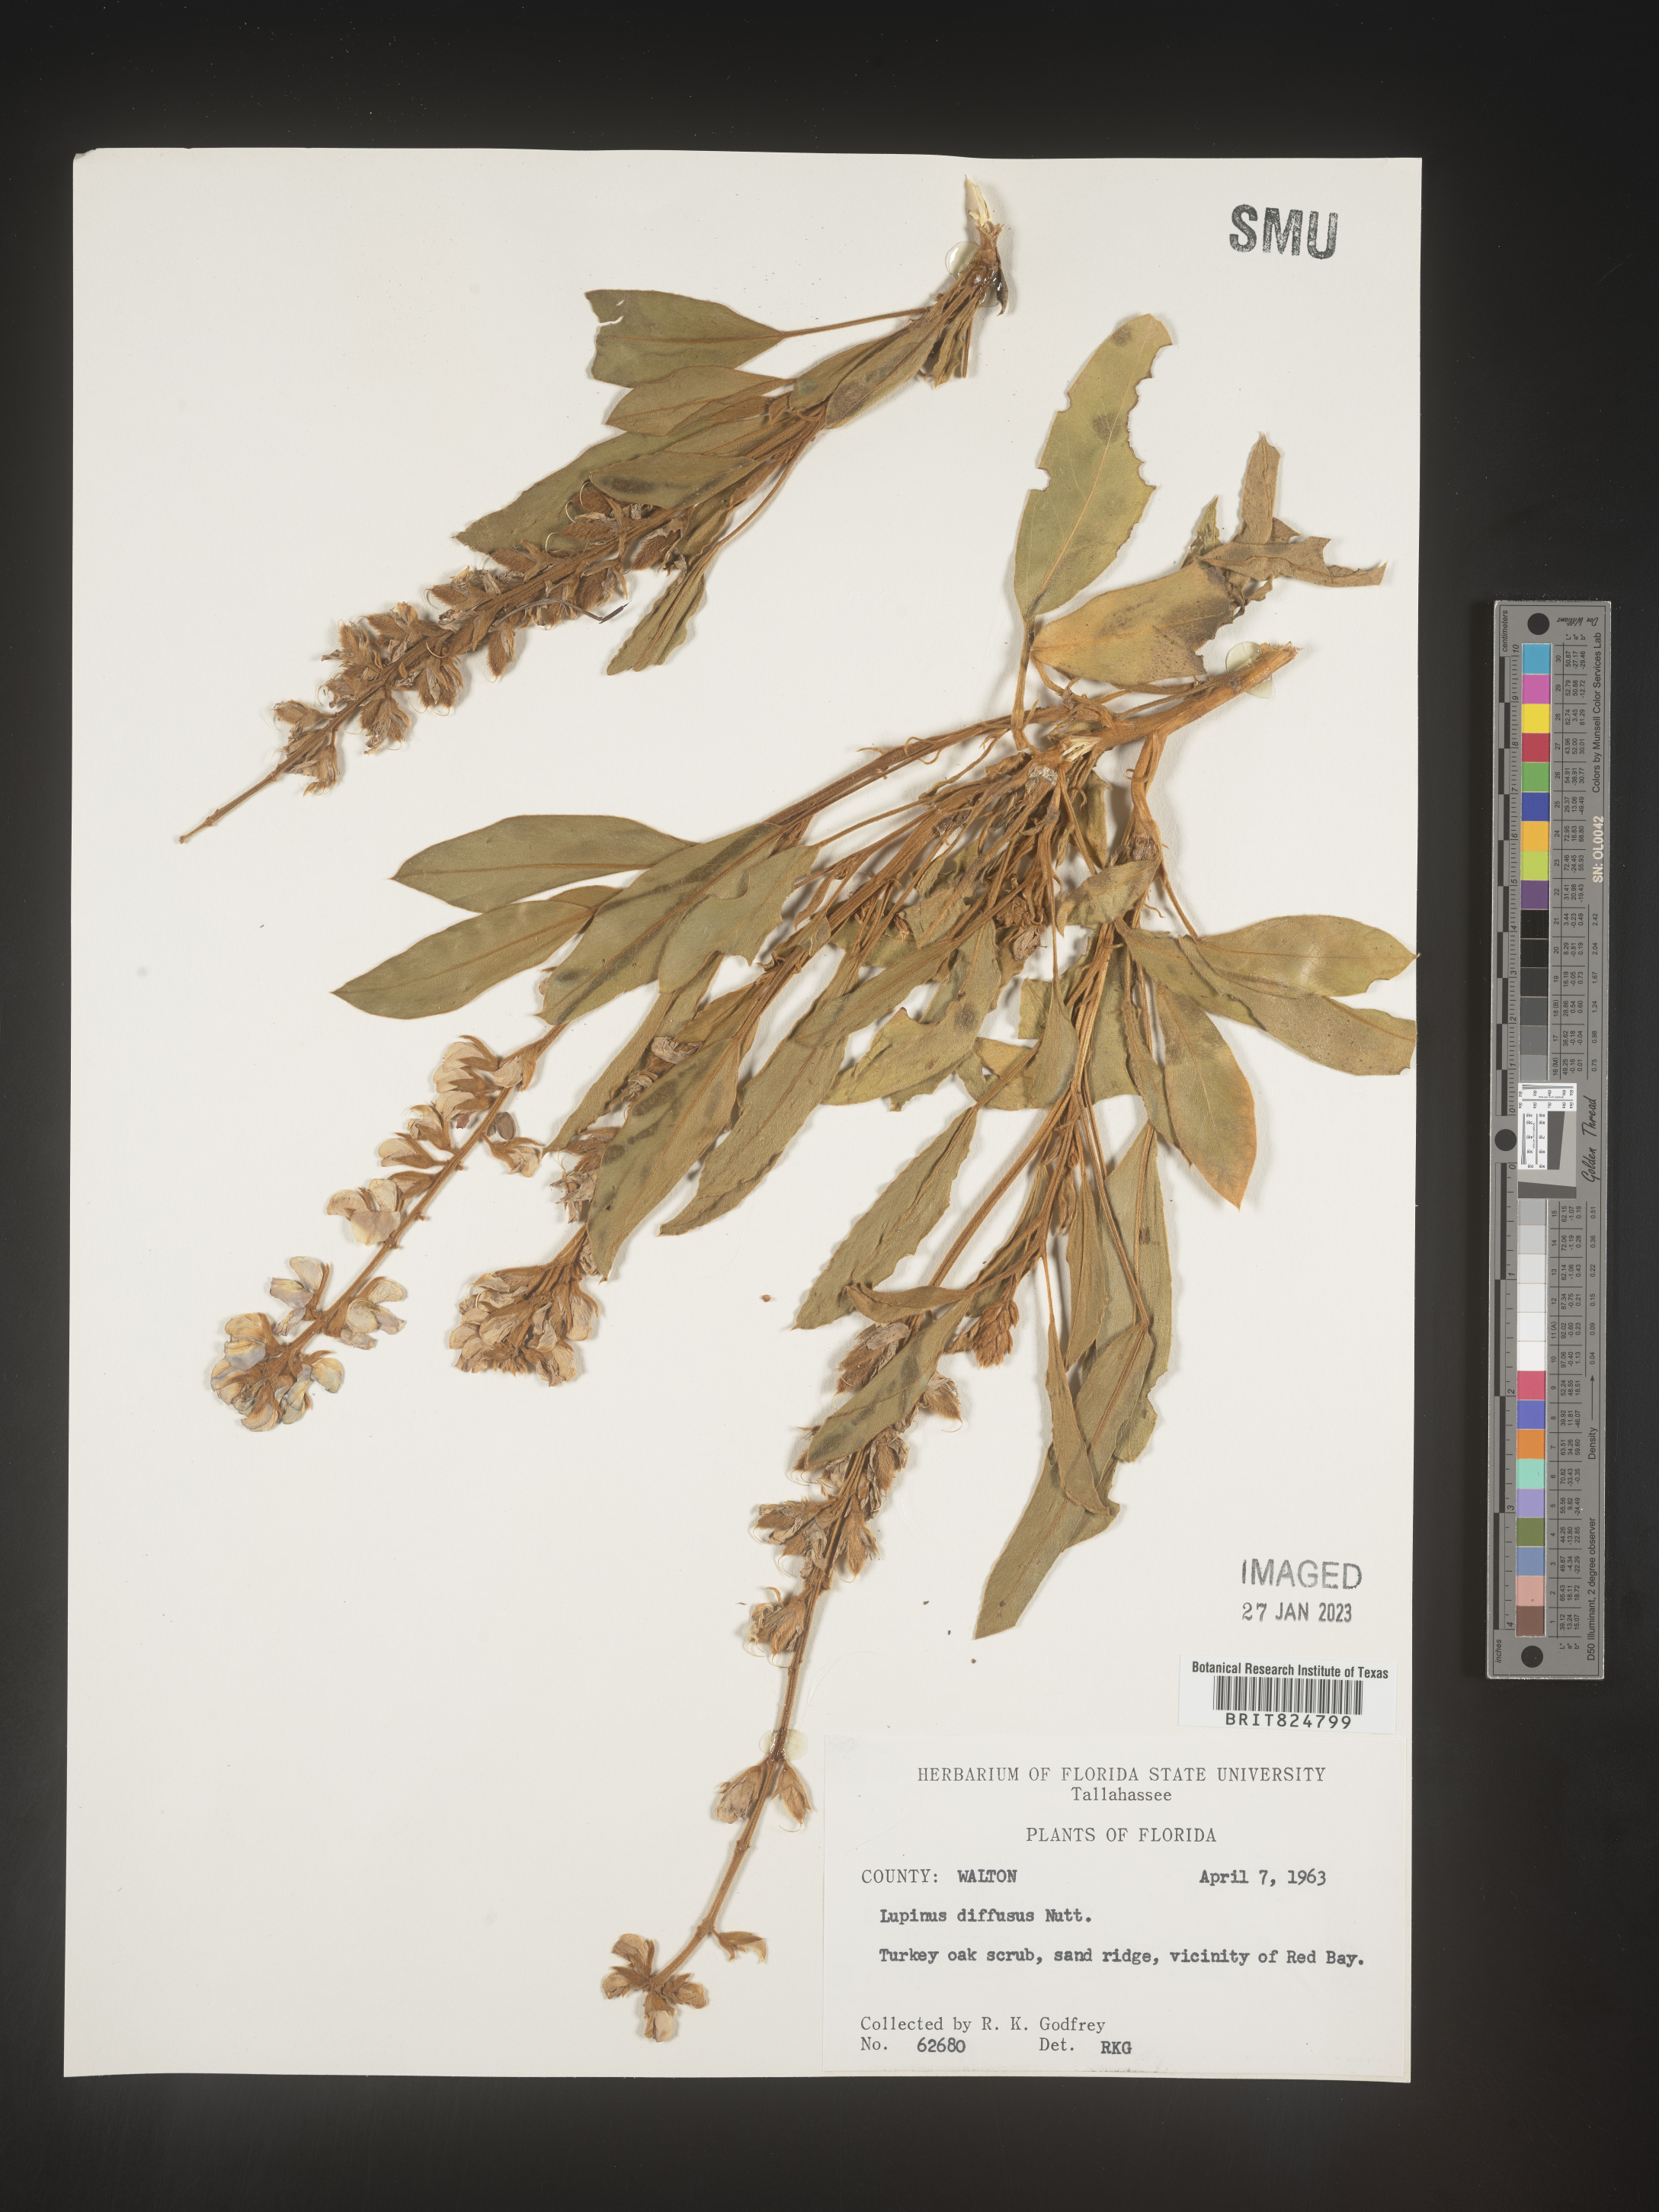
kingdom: Plantae
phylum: Tracheophyta
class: Magnoliopsida
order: Fabales
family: Fabaceae
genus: Lupinus
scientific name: Lupinus diffusus
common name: Oak ridge lupine
